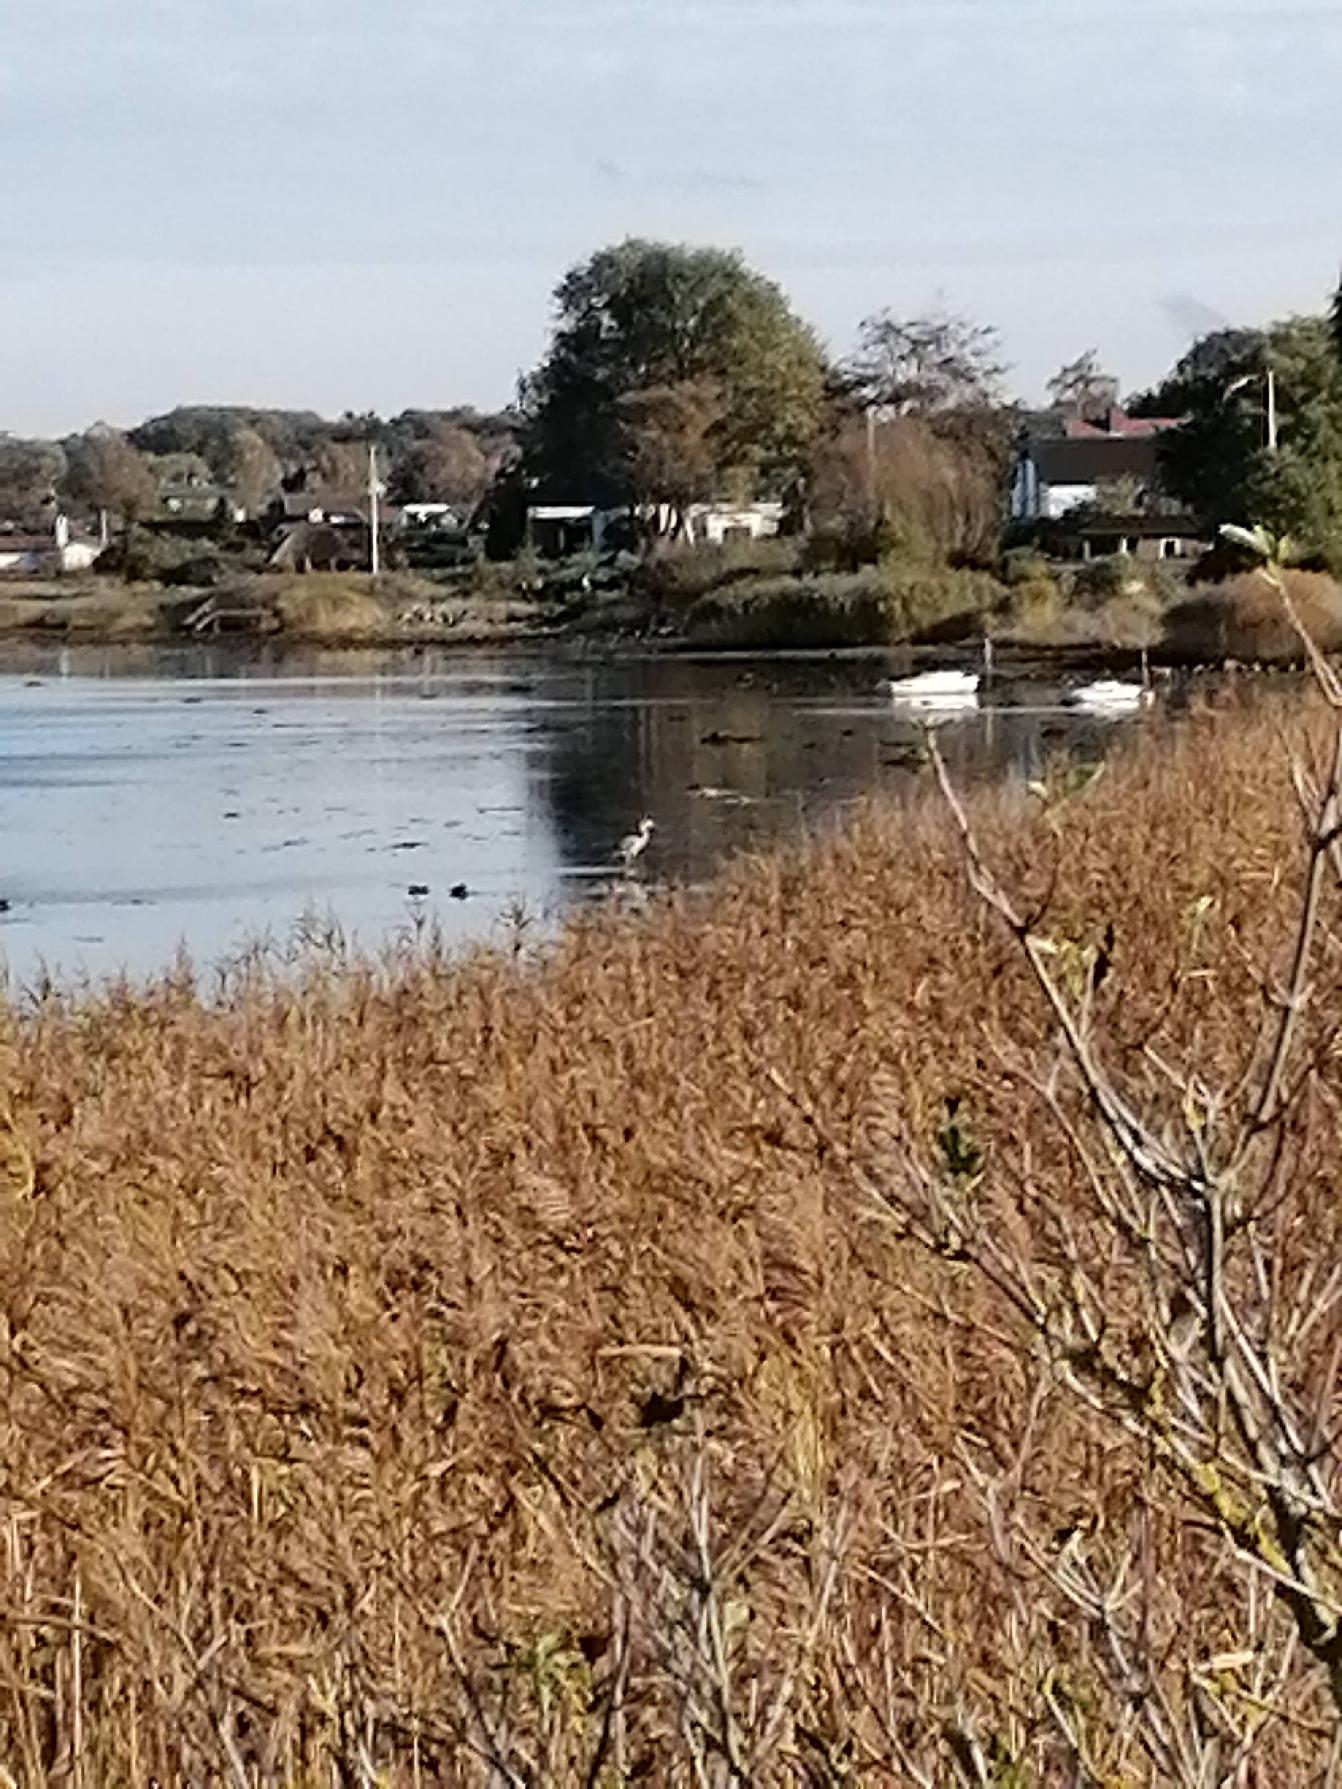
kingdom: Animalia
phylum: Chordata
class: Aves
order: Pelecaniformes
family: Ardeidae
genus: Ardea
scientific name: Ardea cinerea
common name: Fiskehejre
